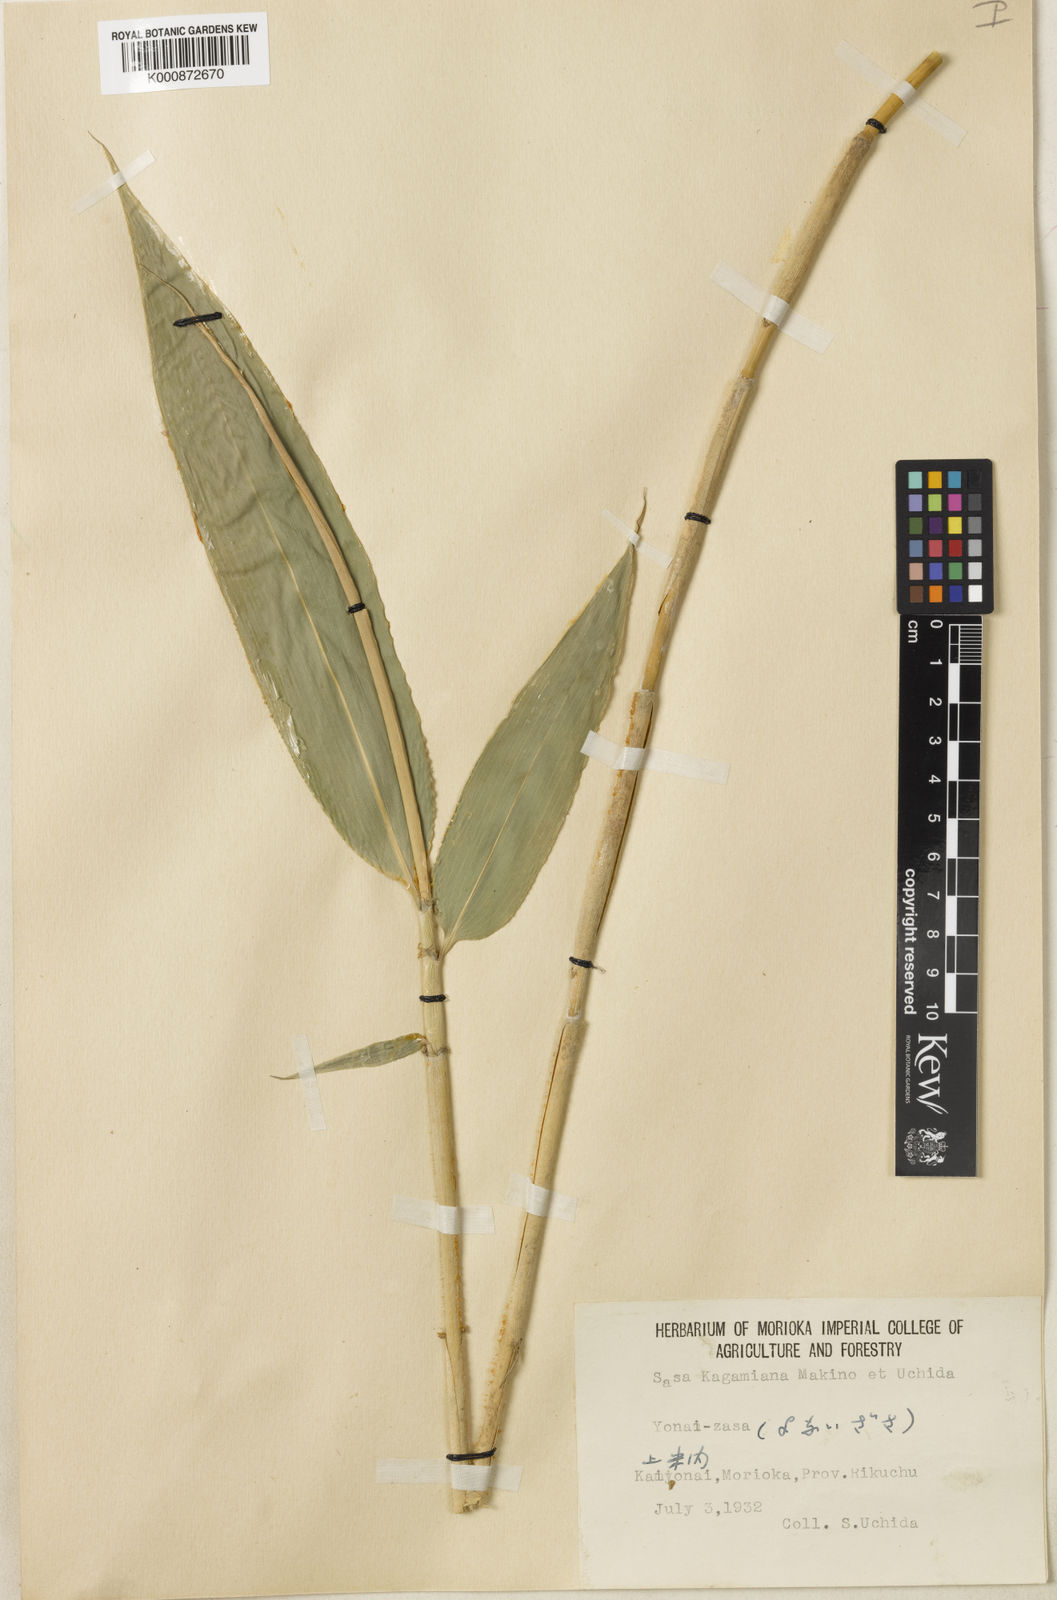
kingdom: Plantae
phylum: Tracheophyta
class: Liliopsida
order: Poales
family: Poaceae
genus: Sasa
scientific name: Sasa kagamiana
